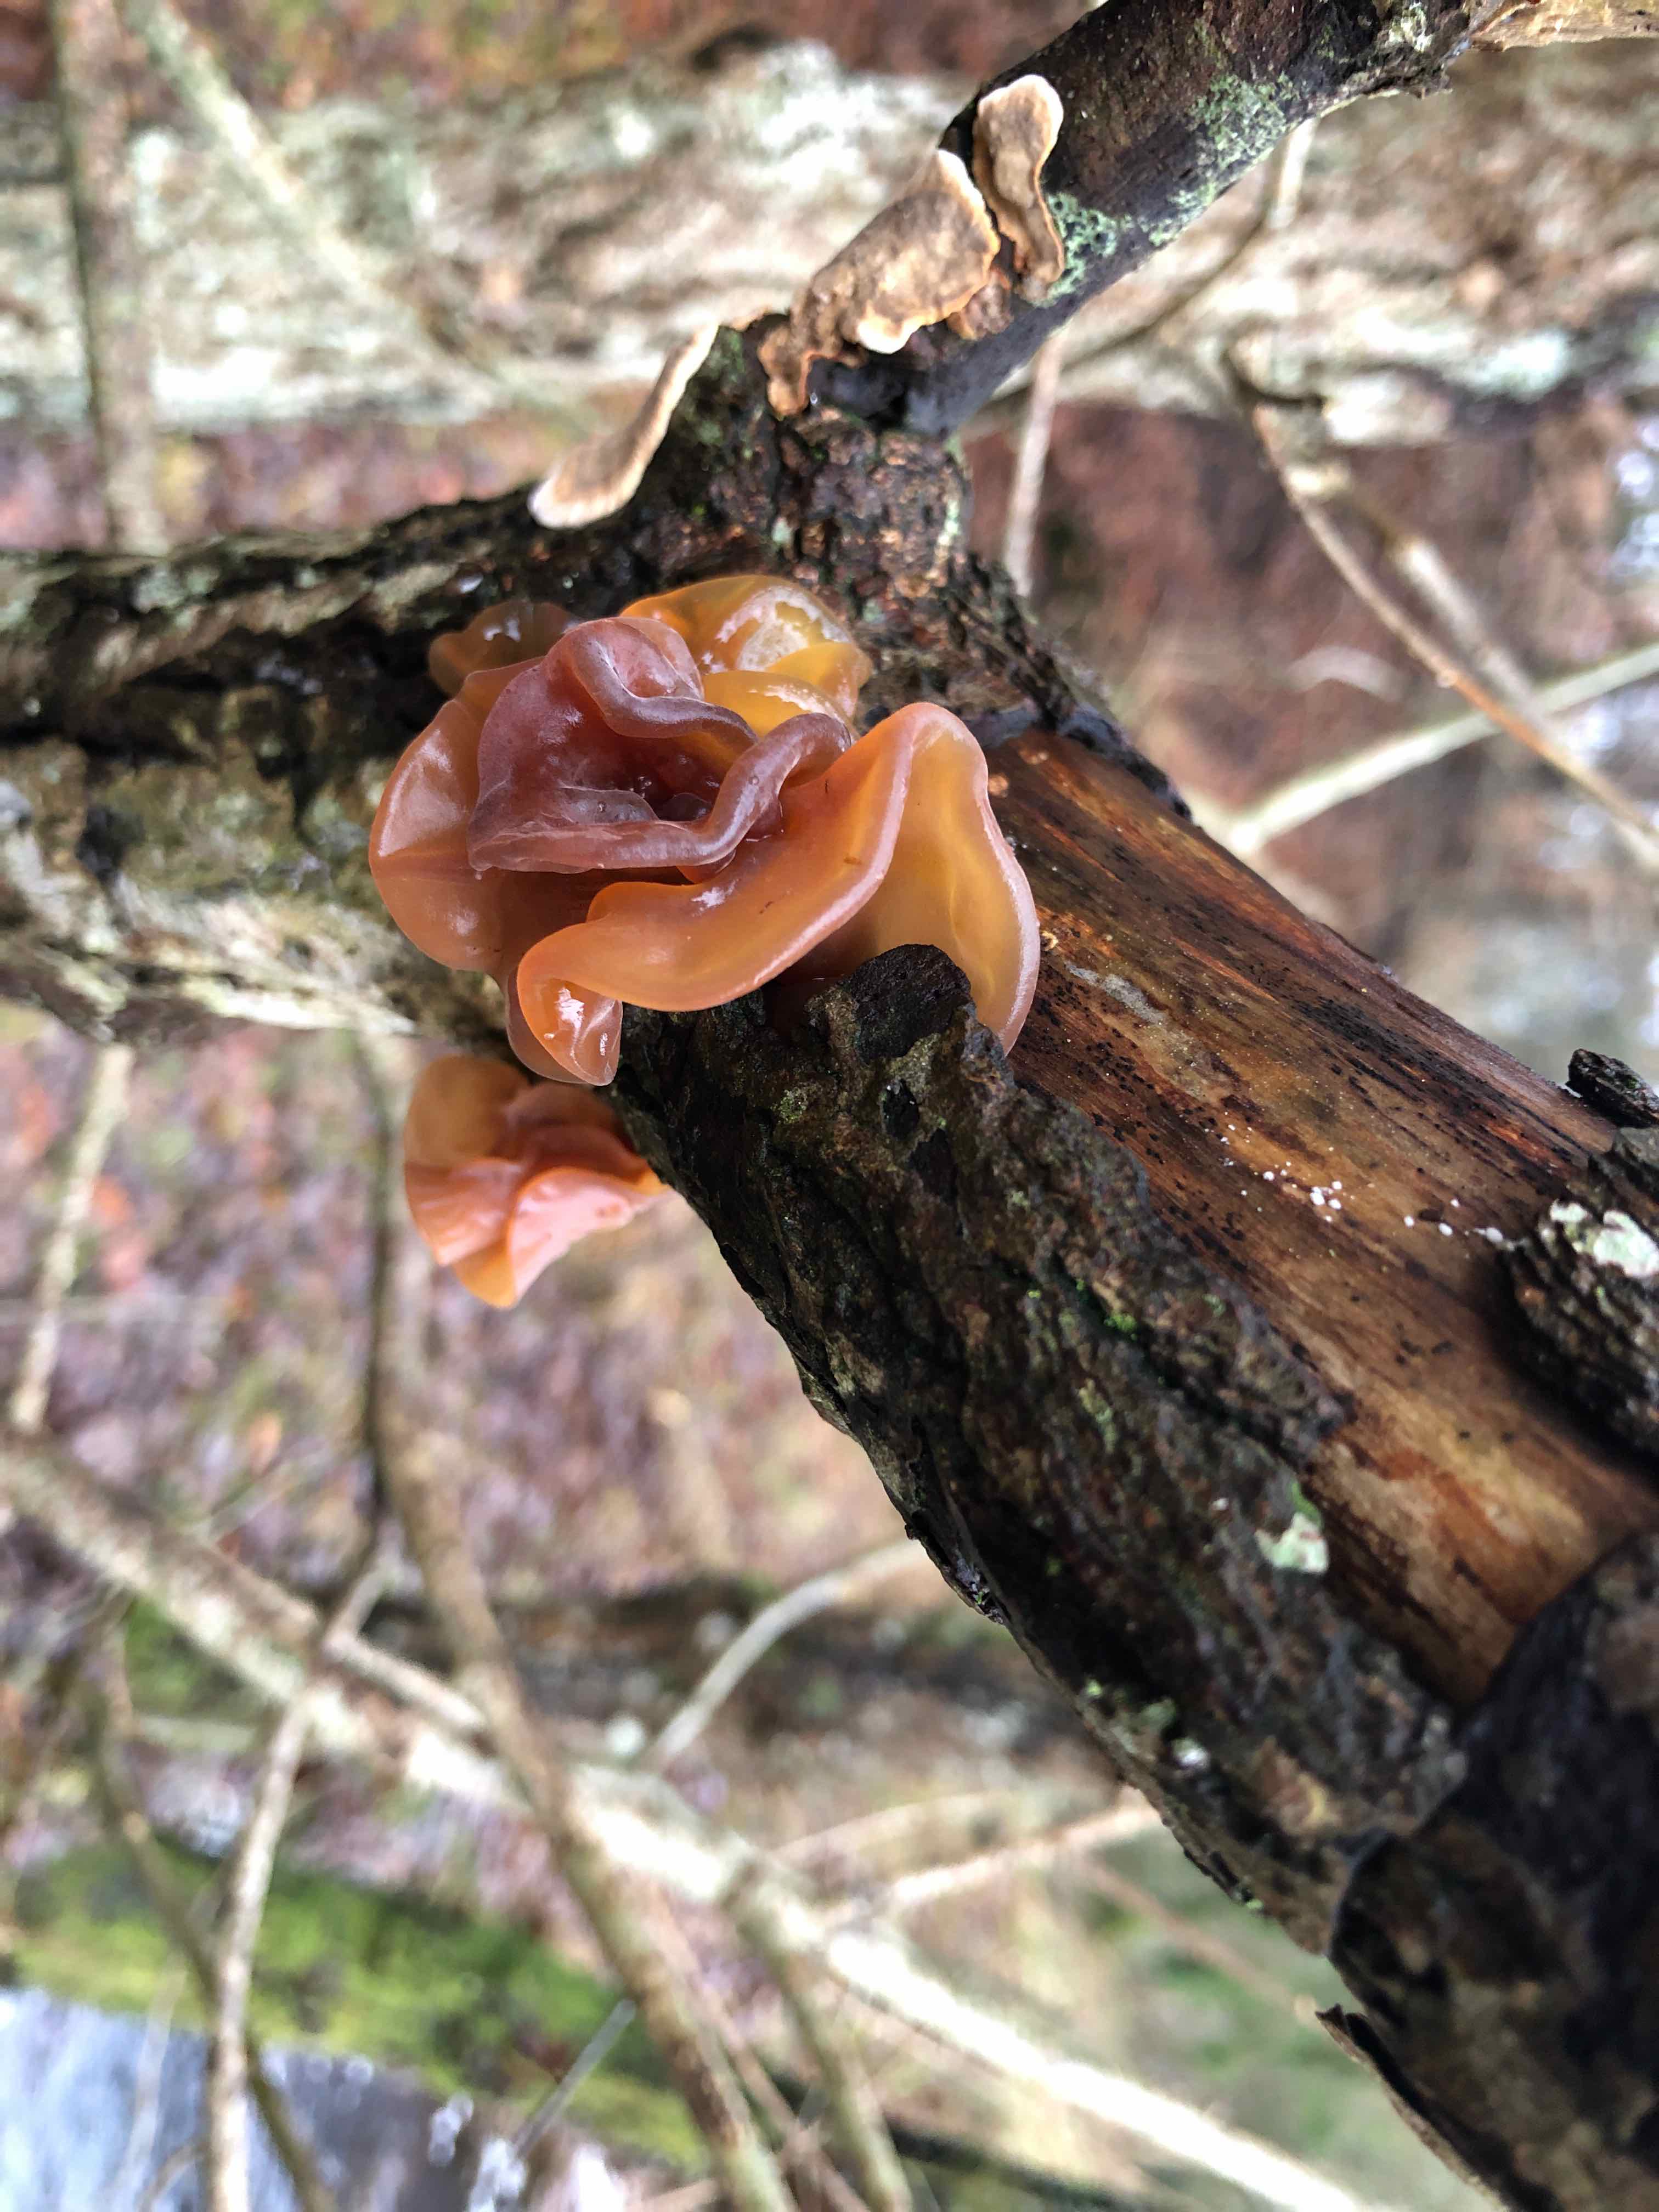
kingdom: Fungi
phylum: Basidiomycota
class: Tremellomycetes
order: Tremellales
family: Tremellaceae
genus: Phaeotremella
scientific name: Phaeotremella frondosa
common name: kæmpe-bævresvamp
